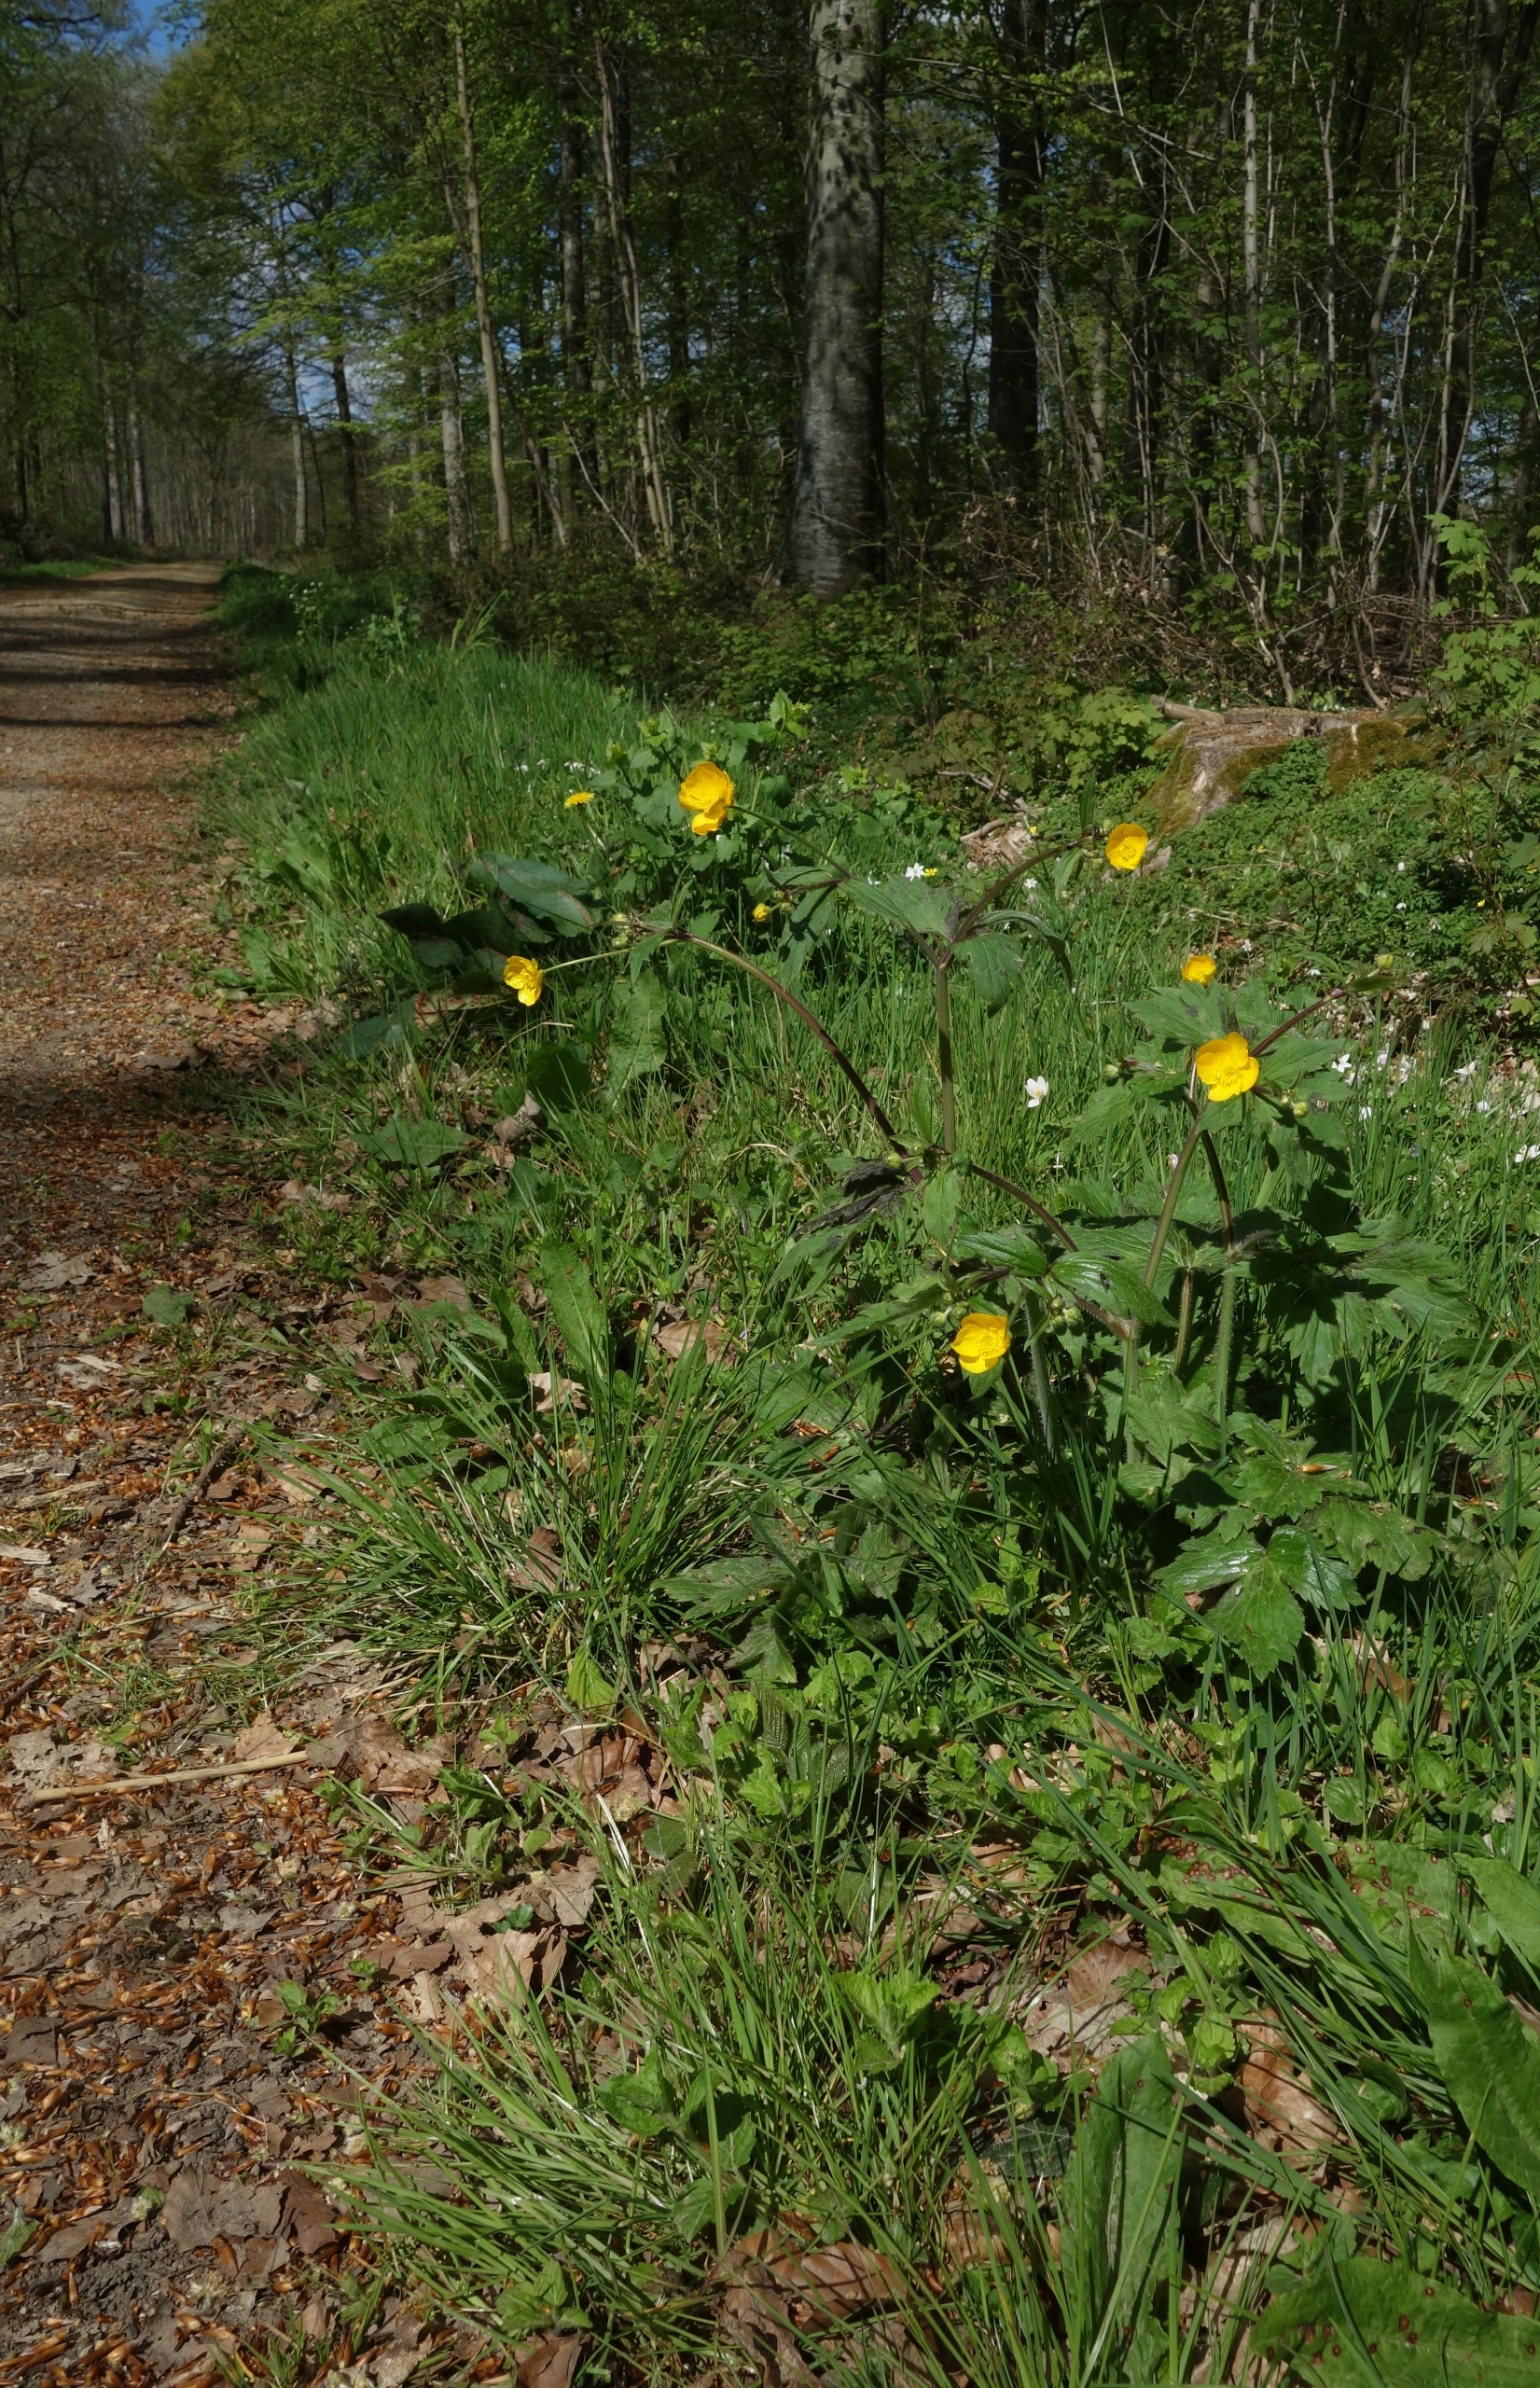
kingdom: Plantae
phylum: Tracheophyta
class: Magnoliopsida
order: Ranunculales
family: Ranunculaceae
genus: Ranunculus
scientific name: Ranunculus lanuginosus
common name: Uldhåret ranunkel
